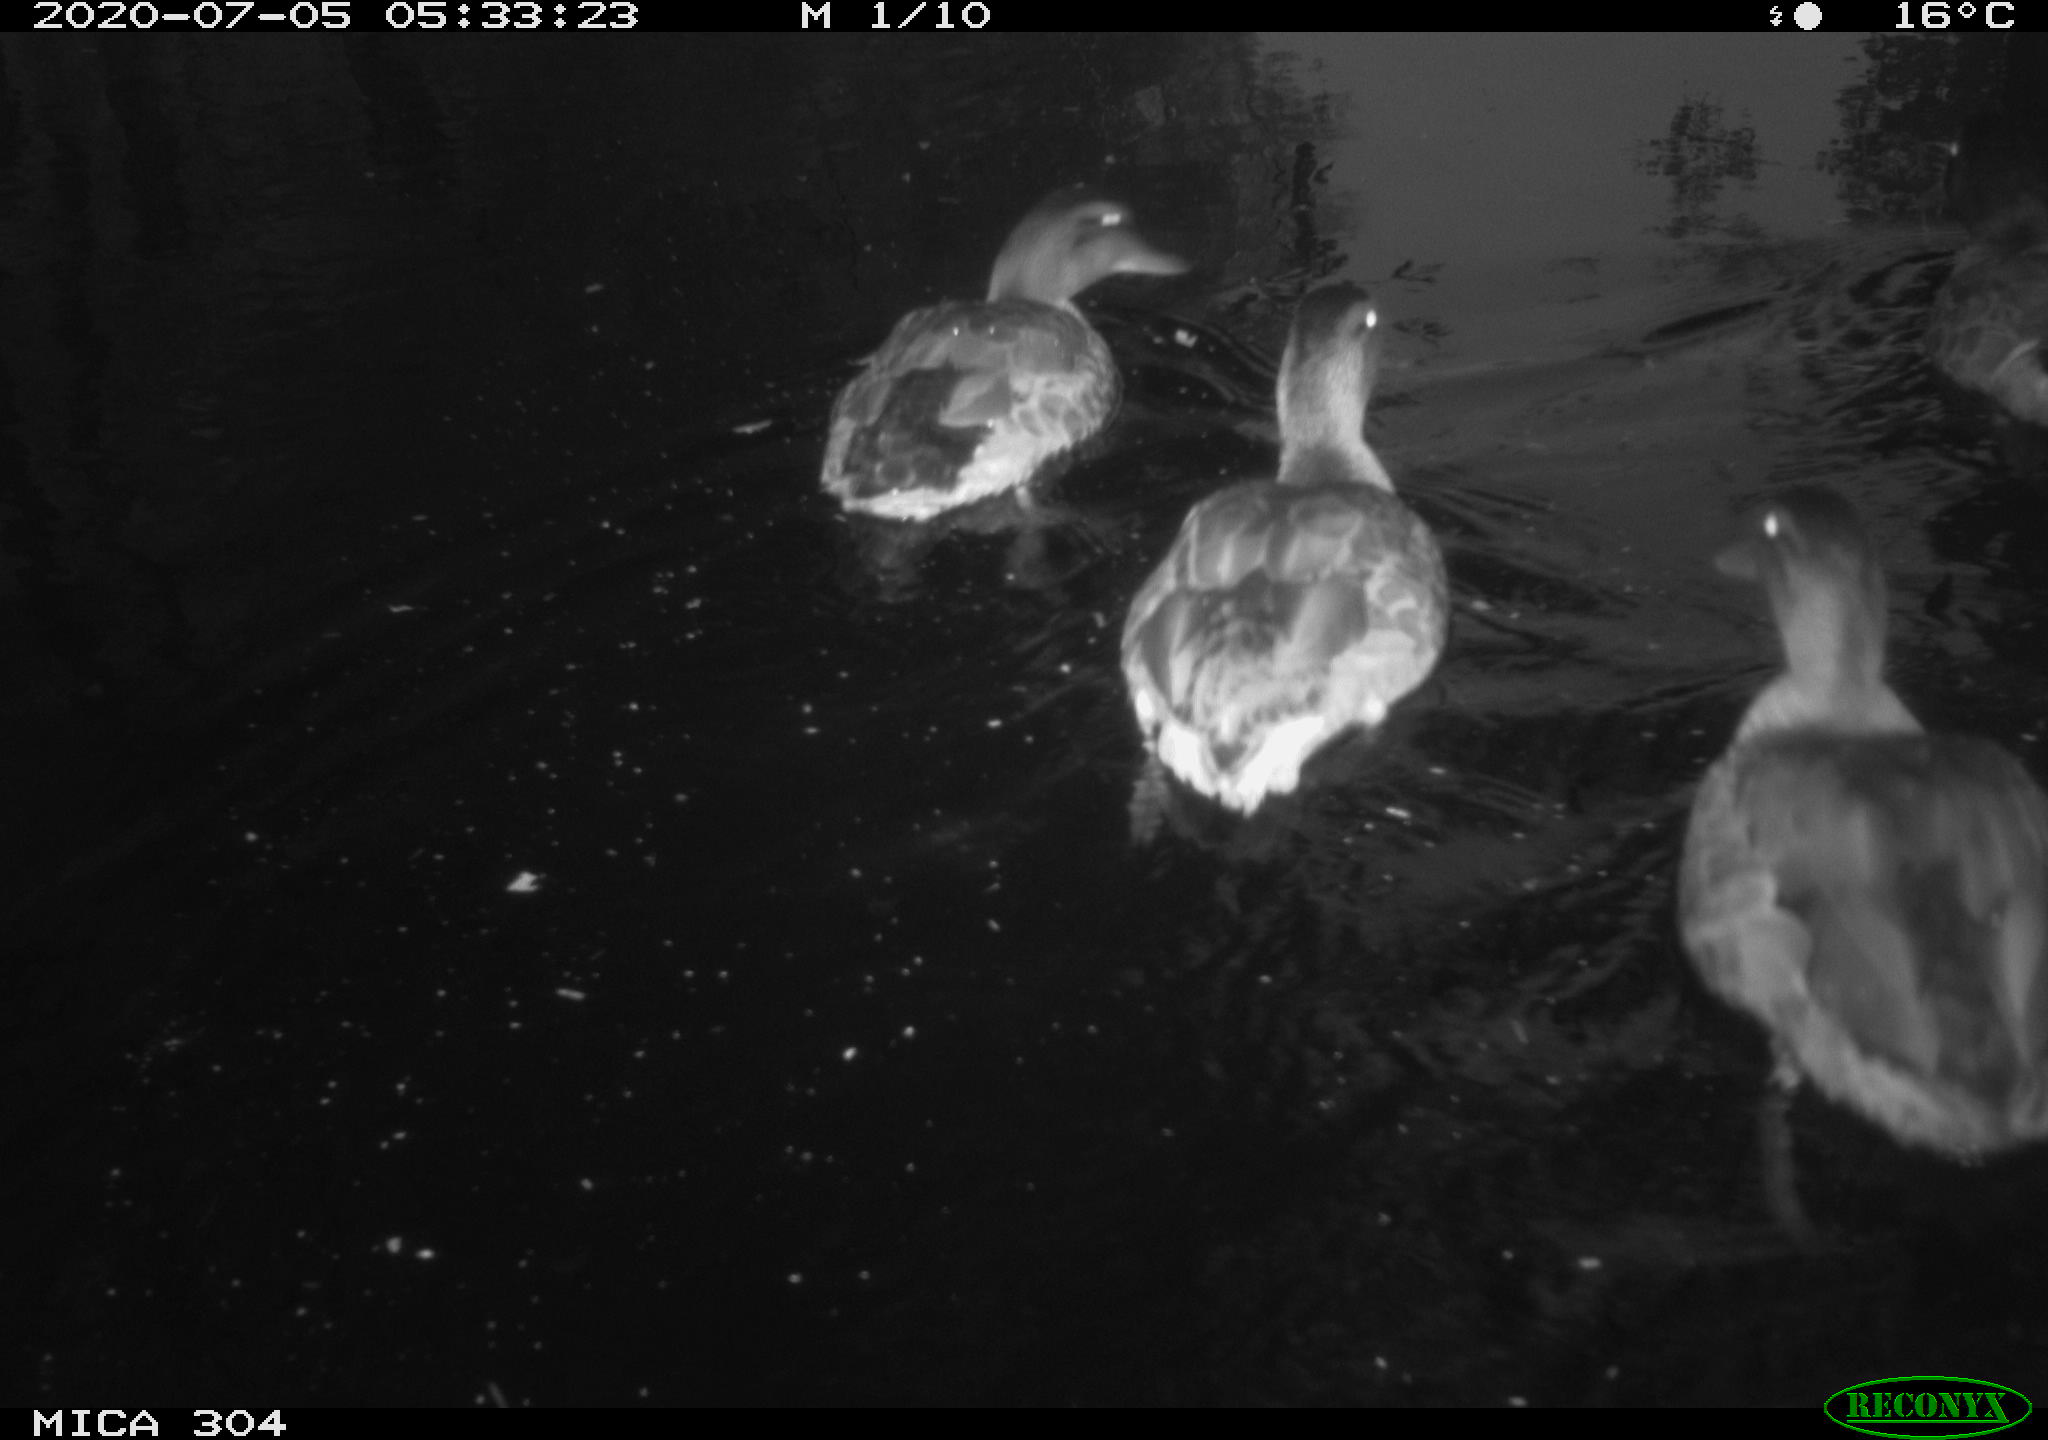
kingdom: Animalia
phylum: Chordata
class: Aves
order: Anseriformes
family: Anatidae
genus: Anas
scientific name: Anas platyrhynchos
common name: Mallard
